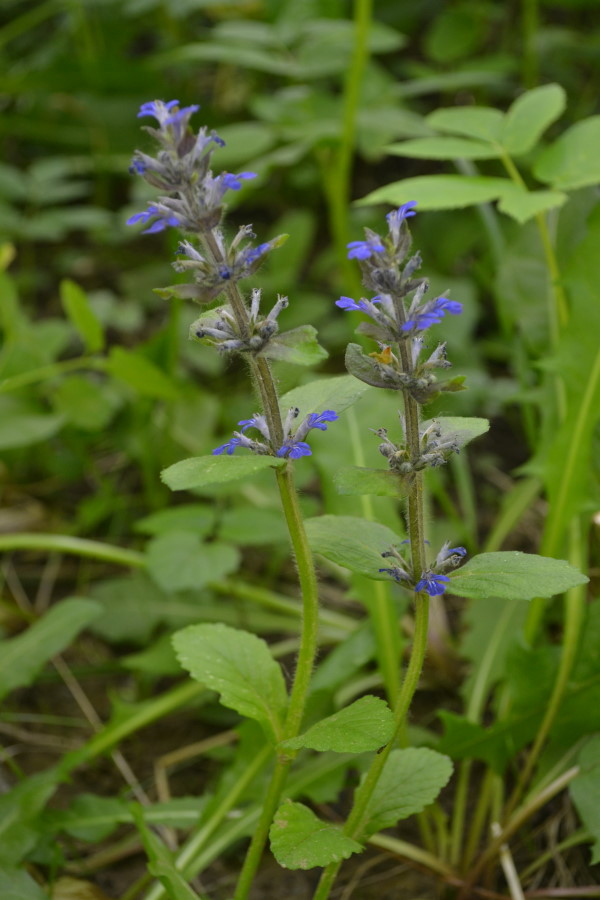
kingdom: Plantae
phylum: Tracheophyta
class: Magnoliopsida
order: Lamiales
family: Lamiaceae
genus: Ajuga
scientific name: Ajuga reptans
